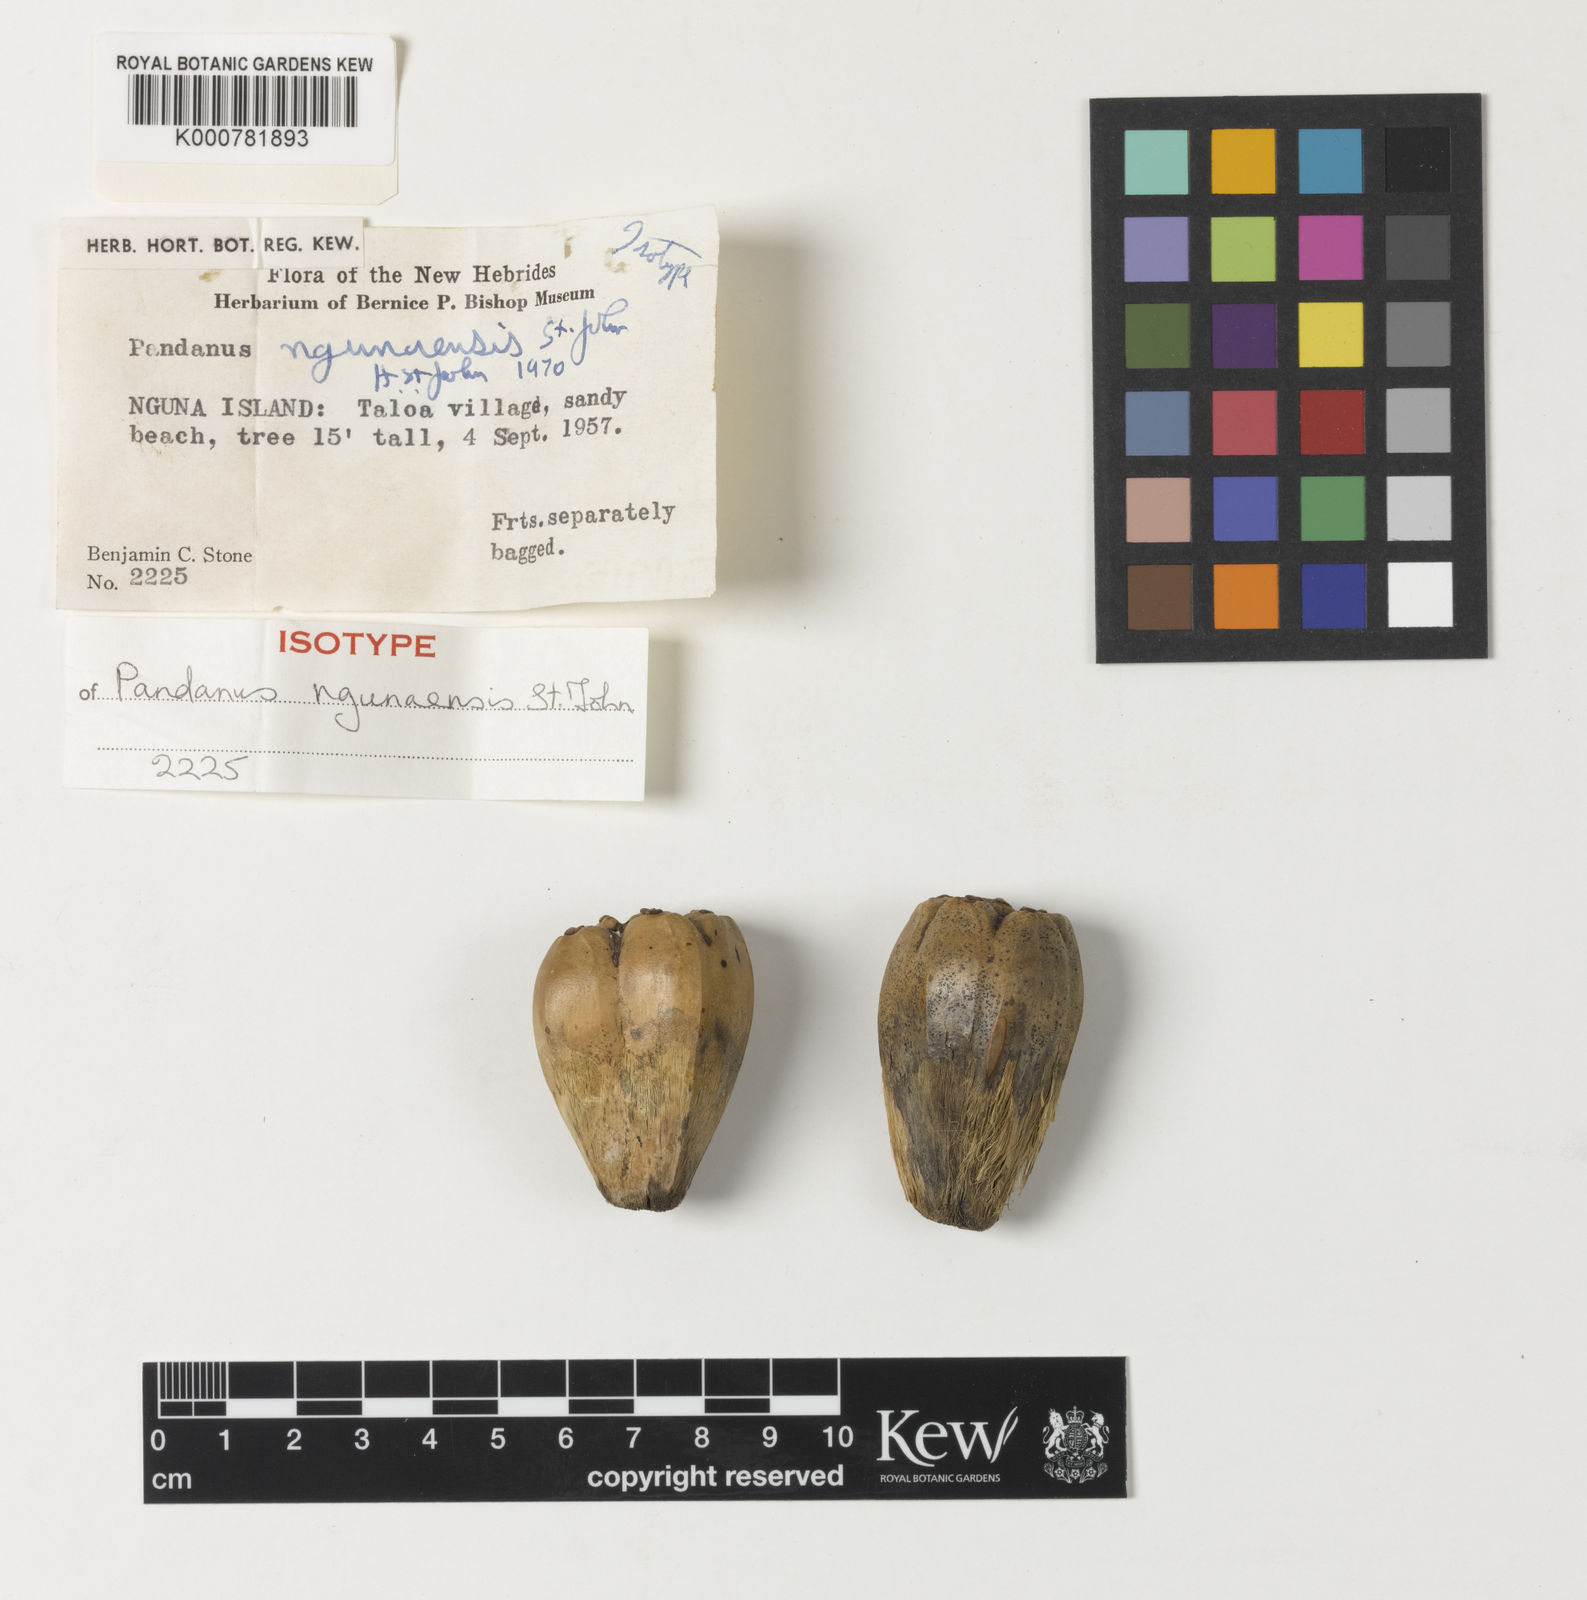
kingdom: Plantae
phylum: Tracheophyta
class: Liliopsida
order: Pandanales
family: Pandanaceae
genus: Pandanus
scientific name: Pandanus ngunaensis
